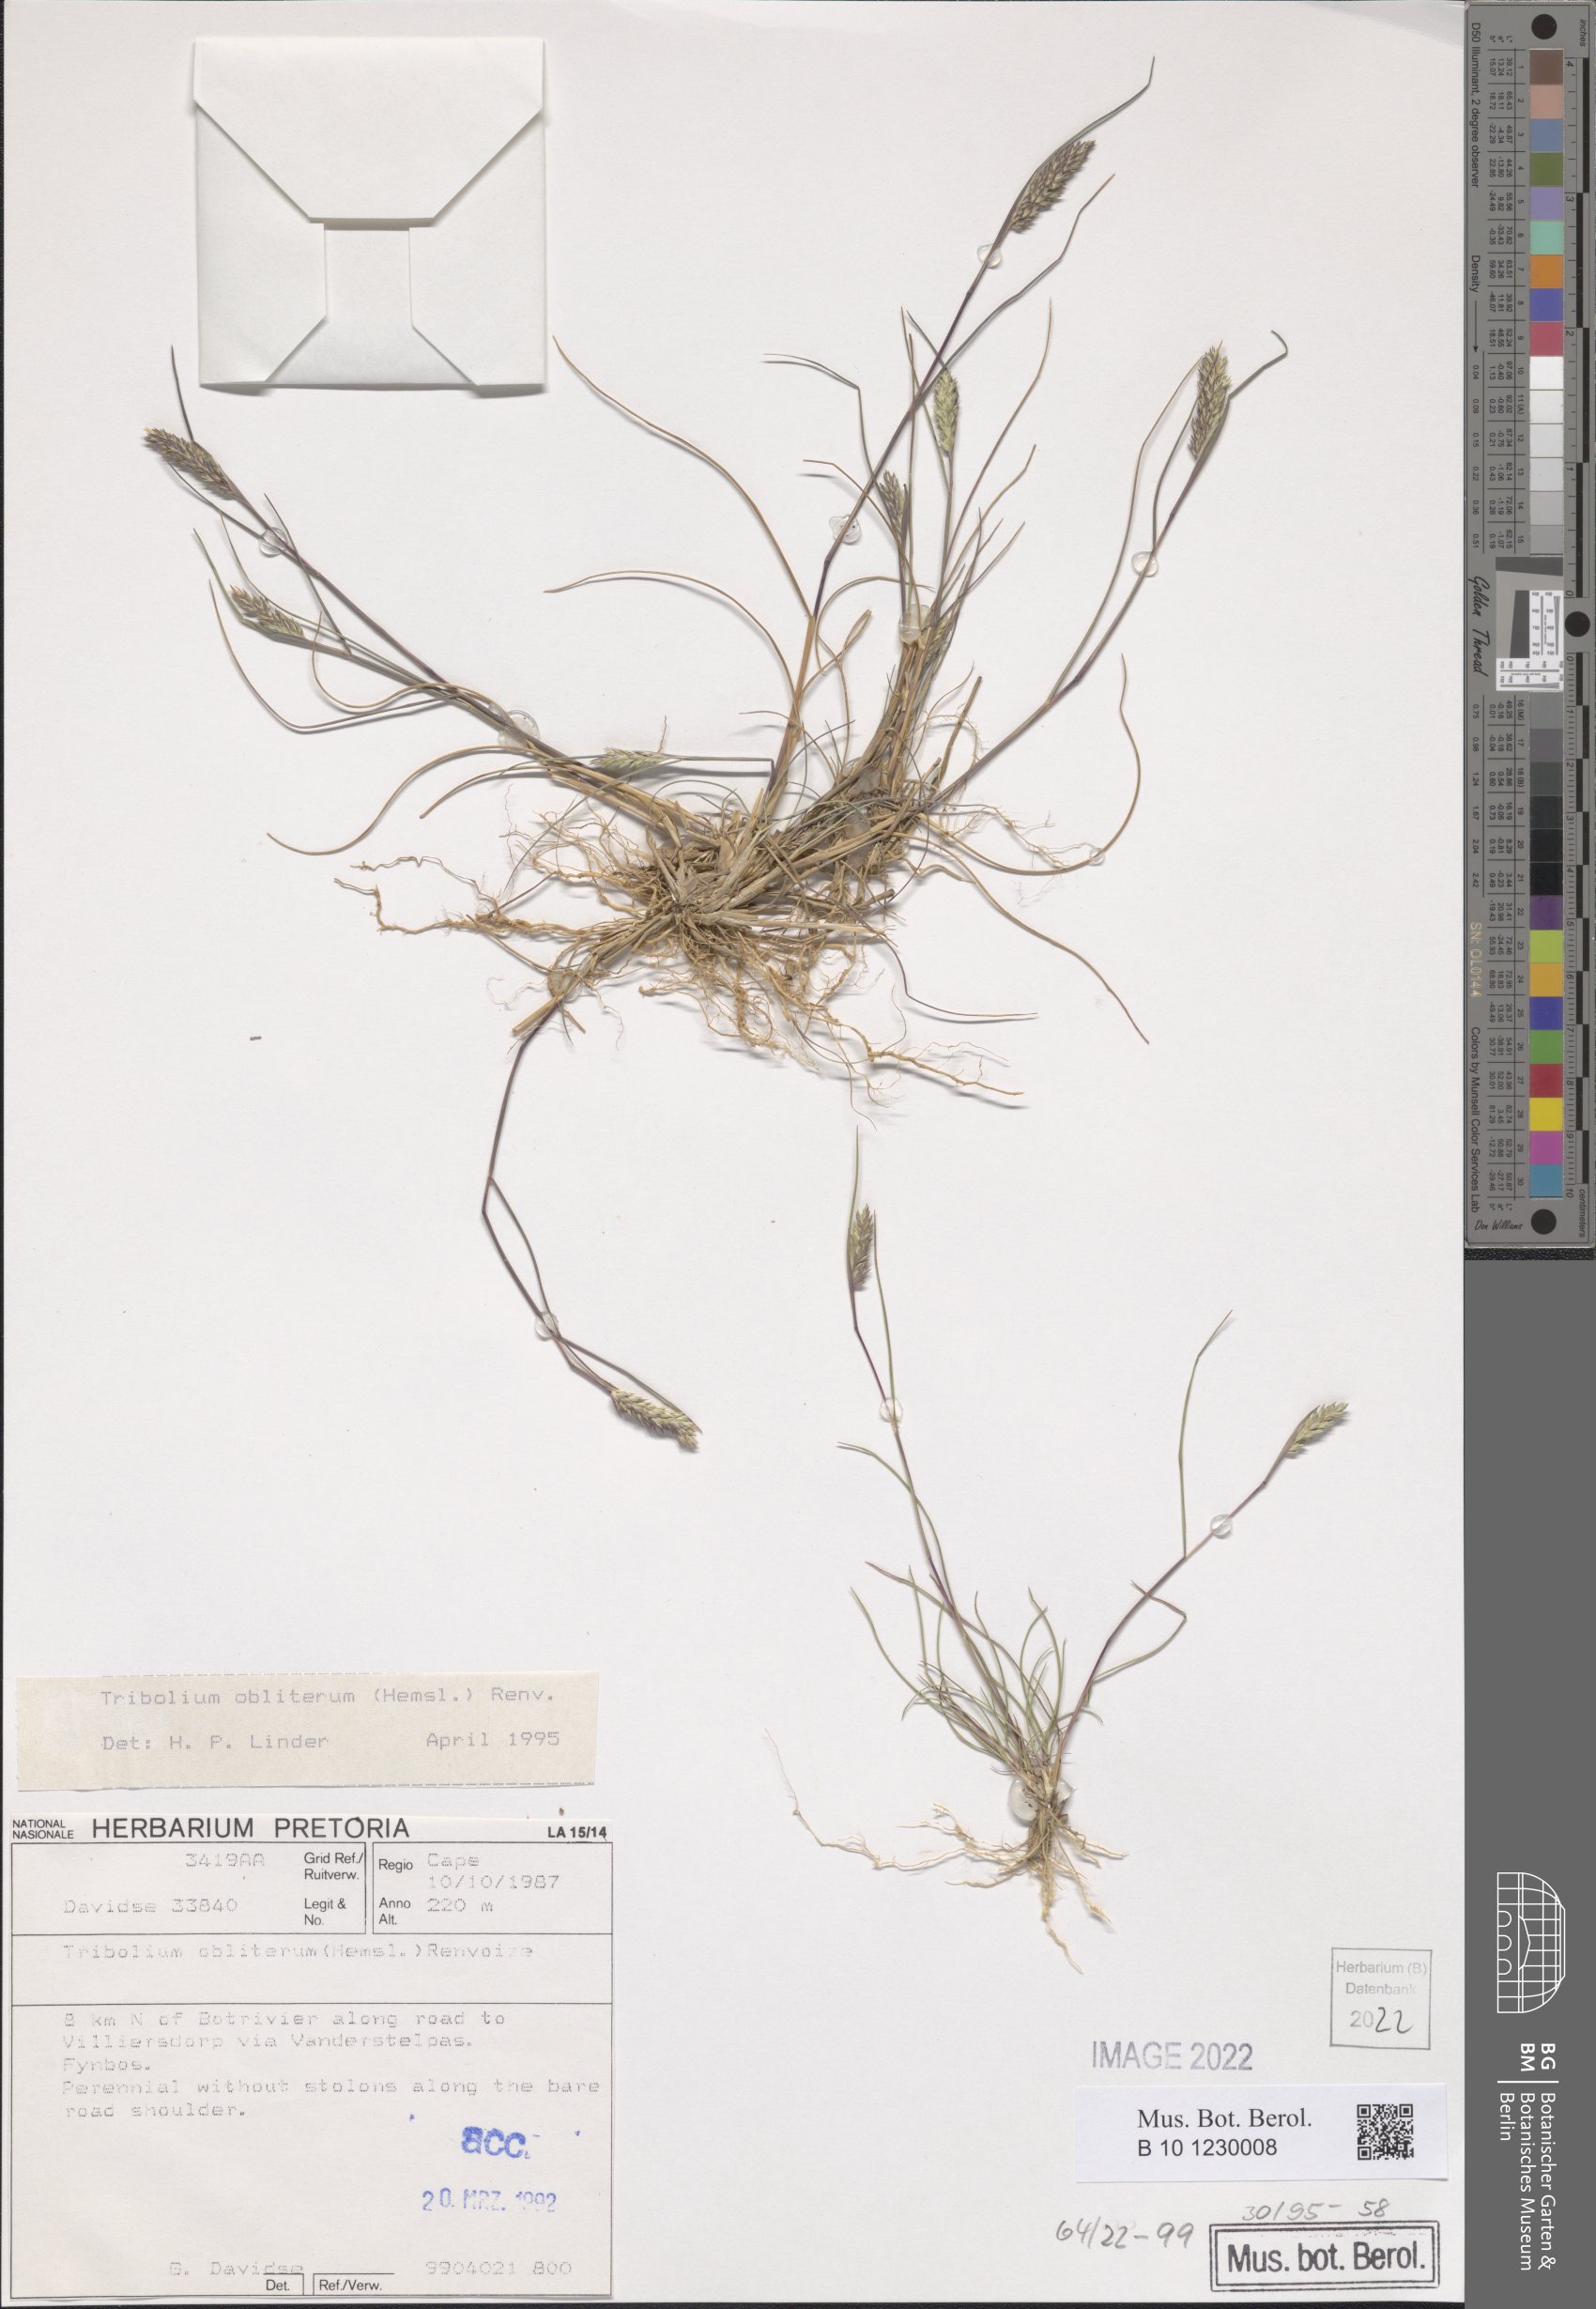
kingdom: Plantae
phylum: Tracheophyta
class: Liliopsida
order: Poales
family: Poaceae
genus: Tribolium
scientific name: Tribolium obliterum
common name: Capetown grass
